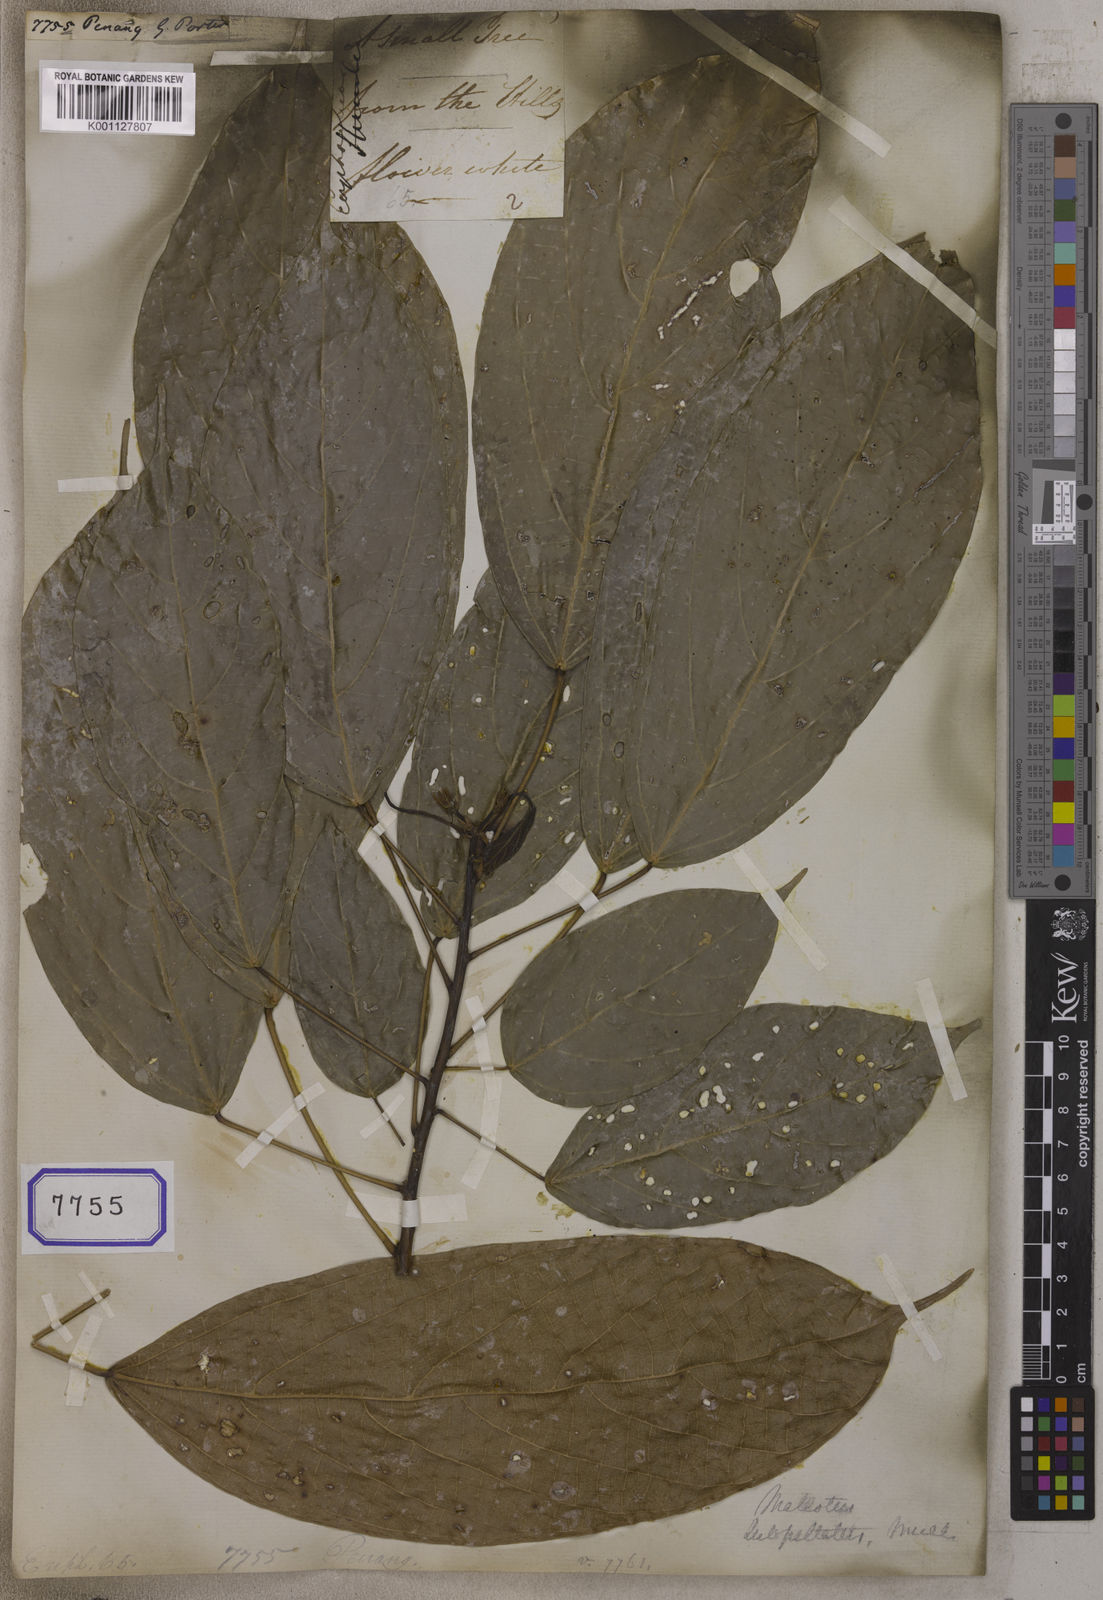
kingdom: Plantae
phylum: Tracheophyta
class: Magnoliopsida
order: Malpighiales
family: Euphorbiaceae
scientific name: Euphorbiaceae
